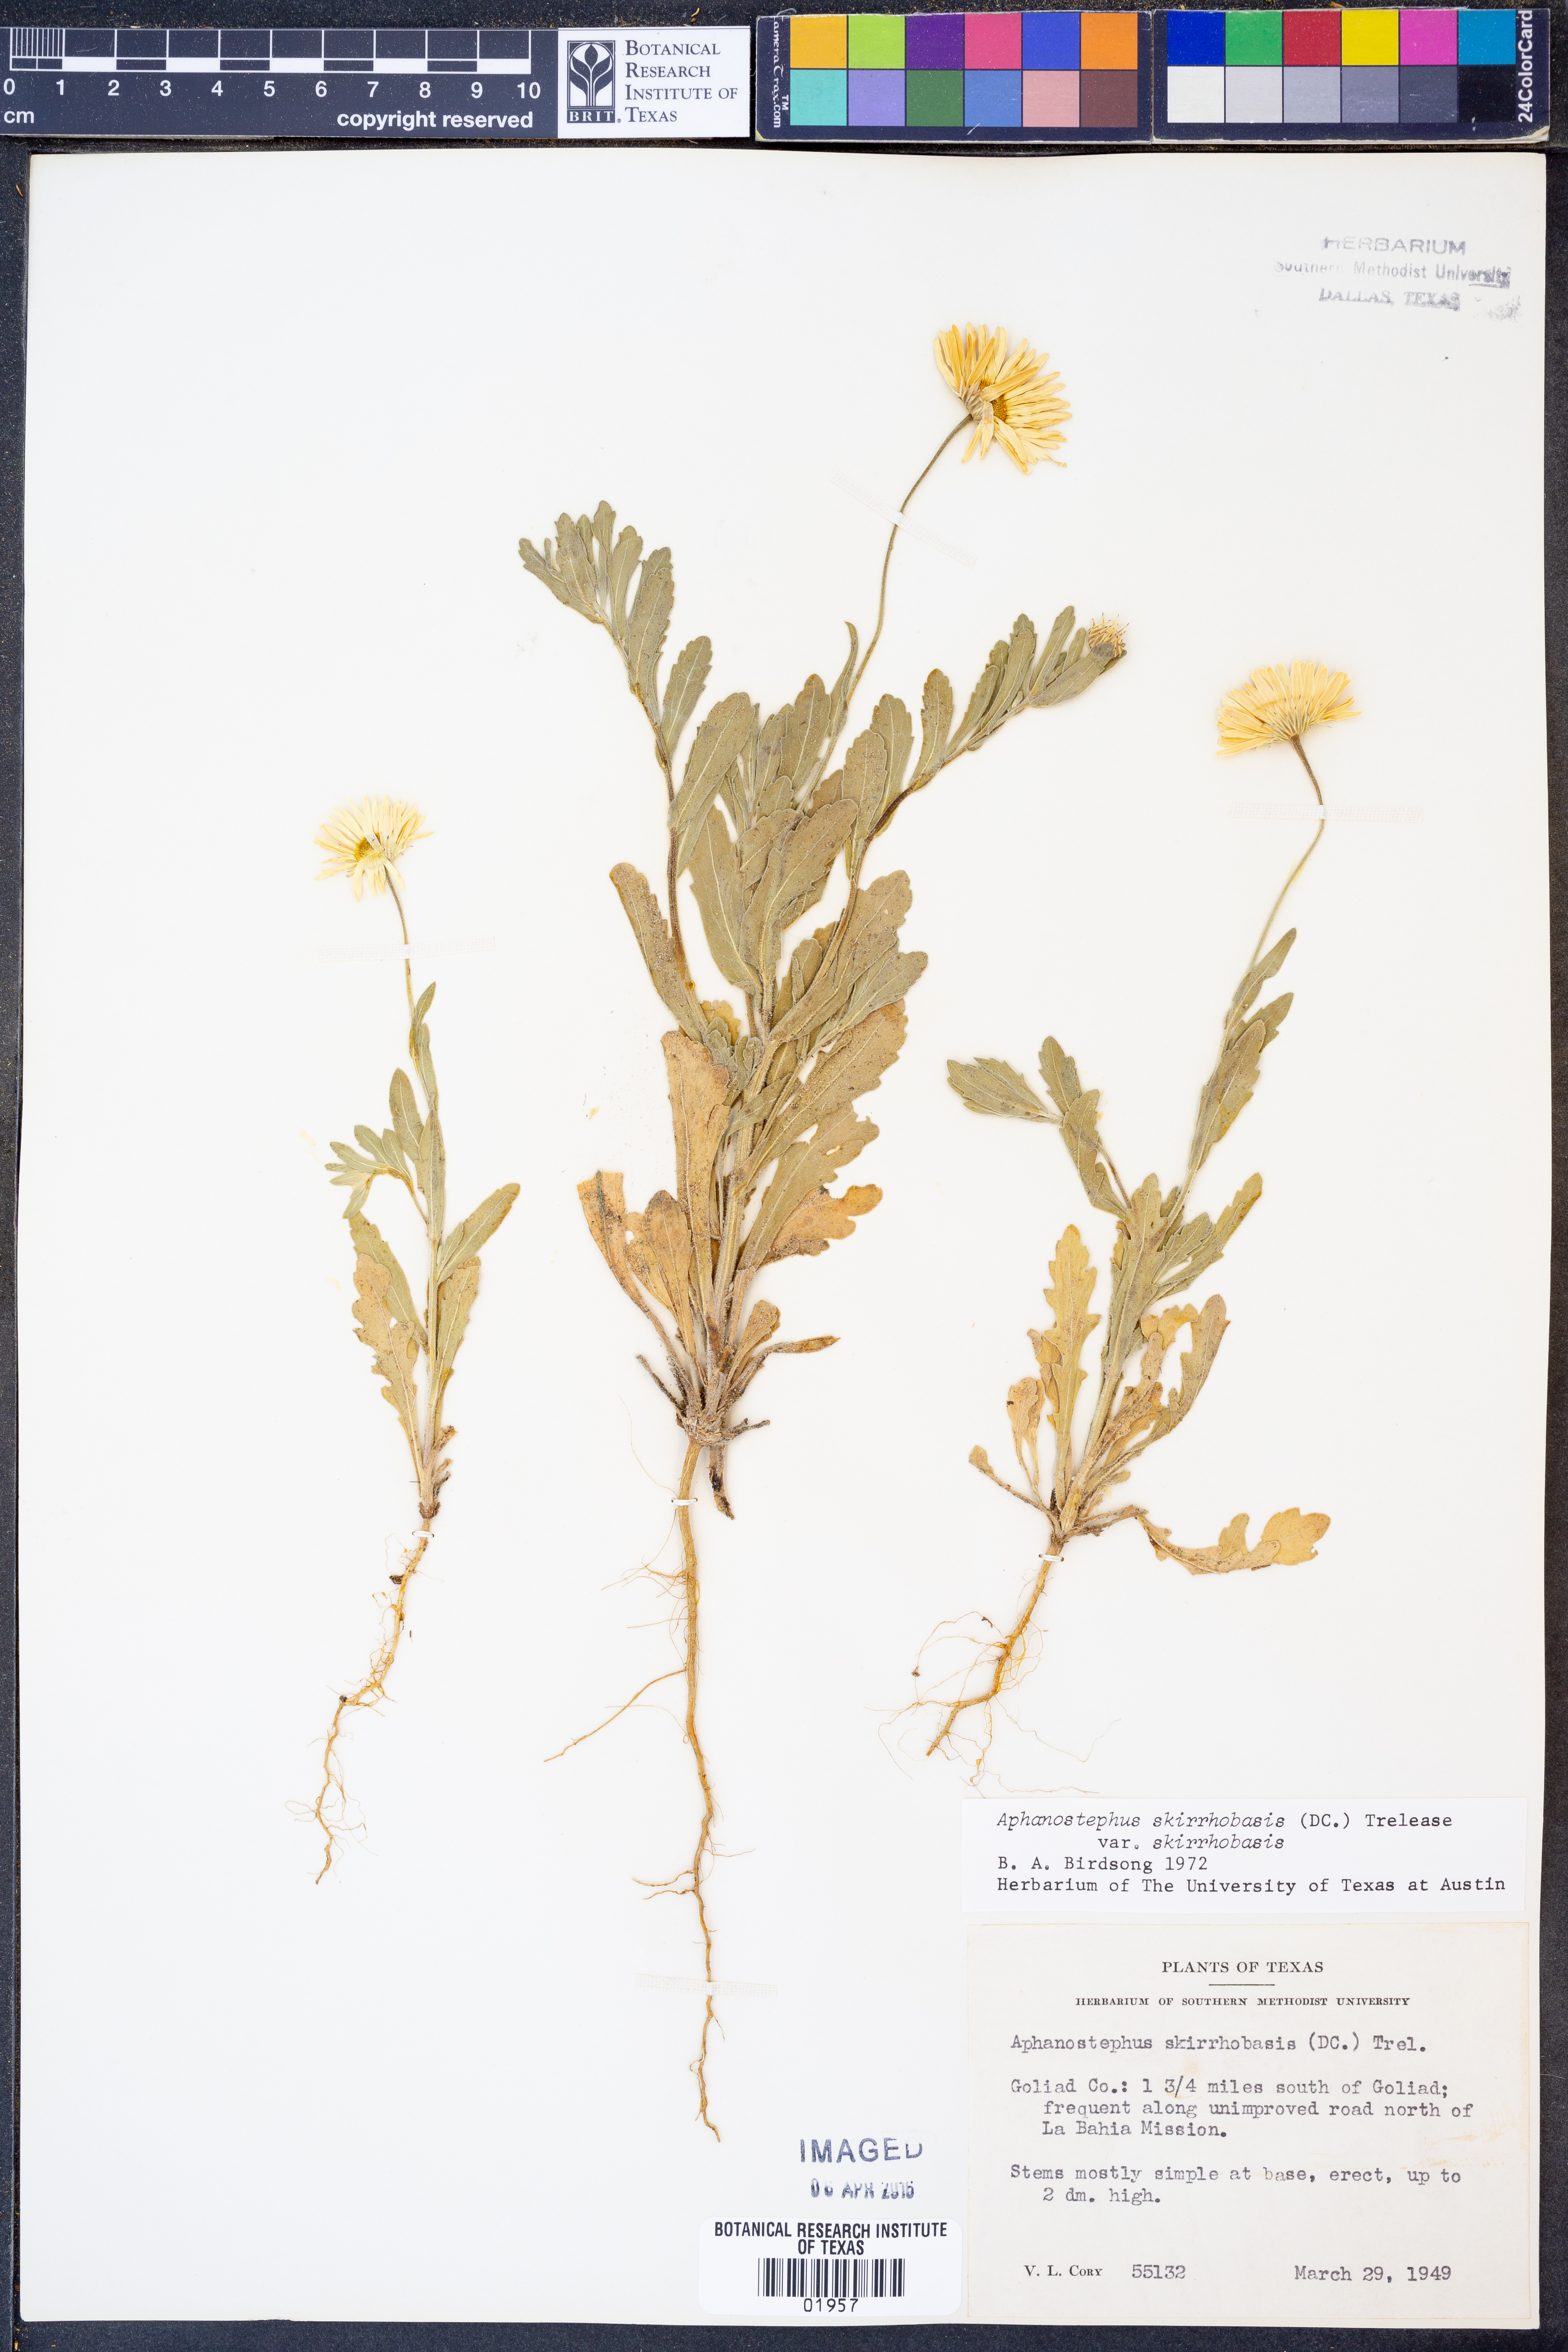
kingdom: Plantae
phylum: Tracheophyta
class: Magnoliopsida
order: Asterales
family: Asteraceae
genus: Aphanostephus
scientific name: Aphanostephus skirrhobasis
